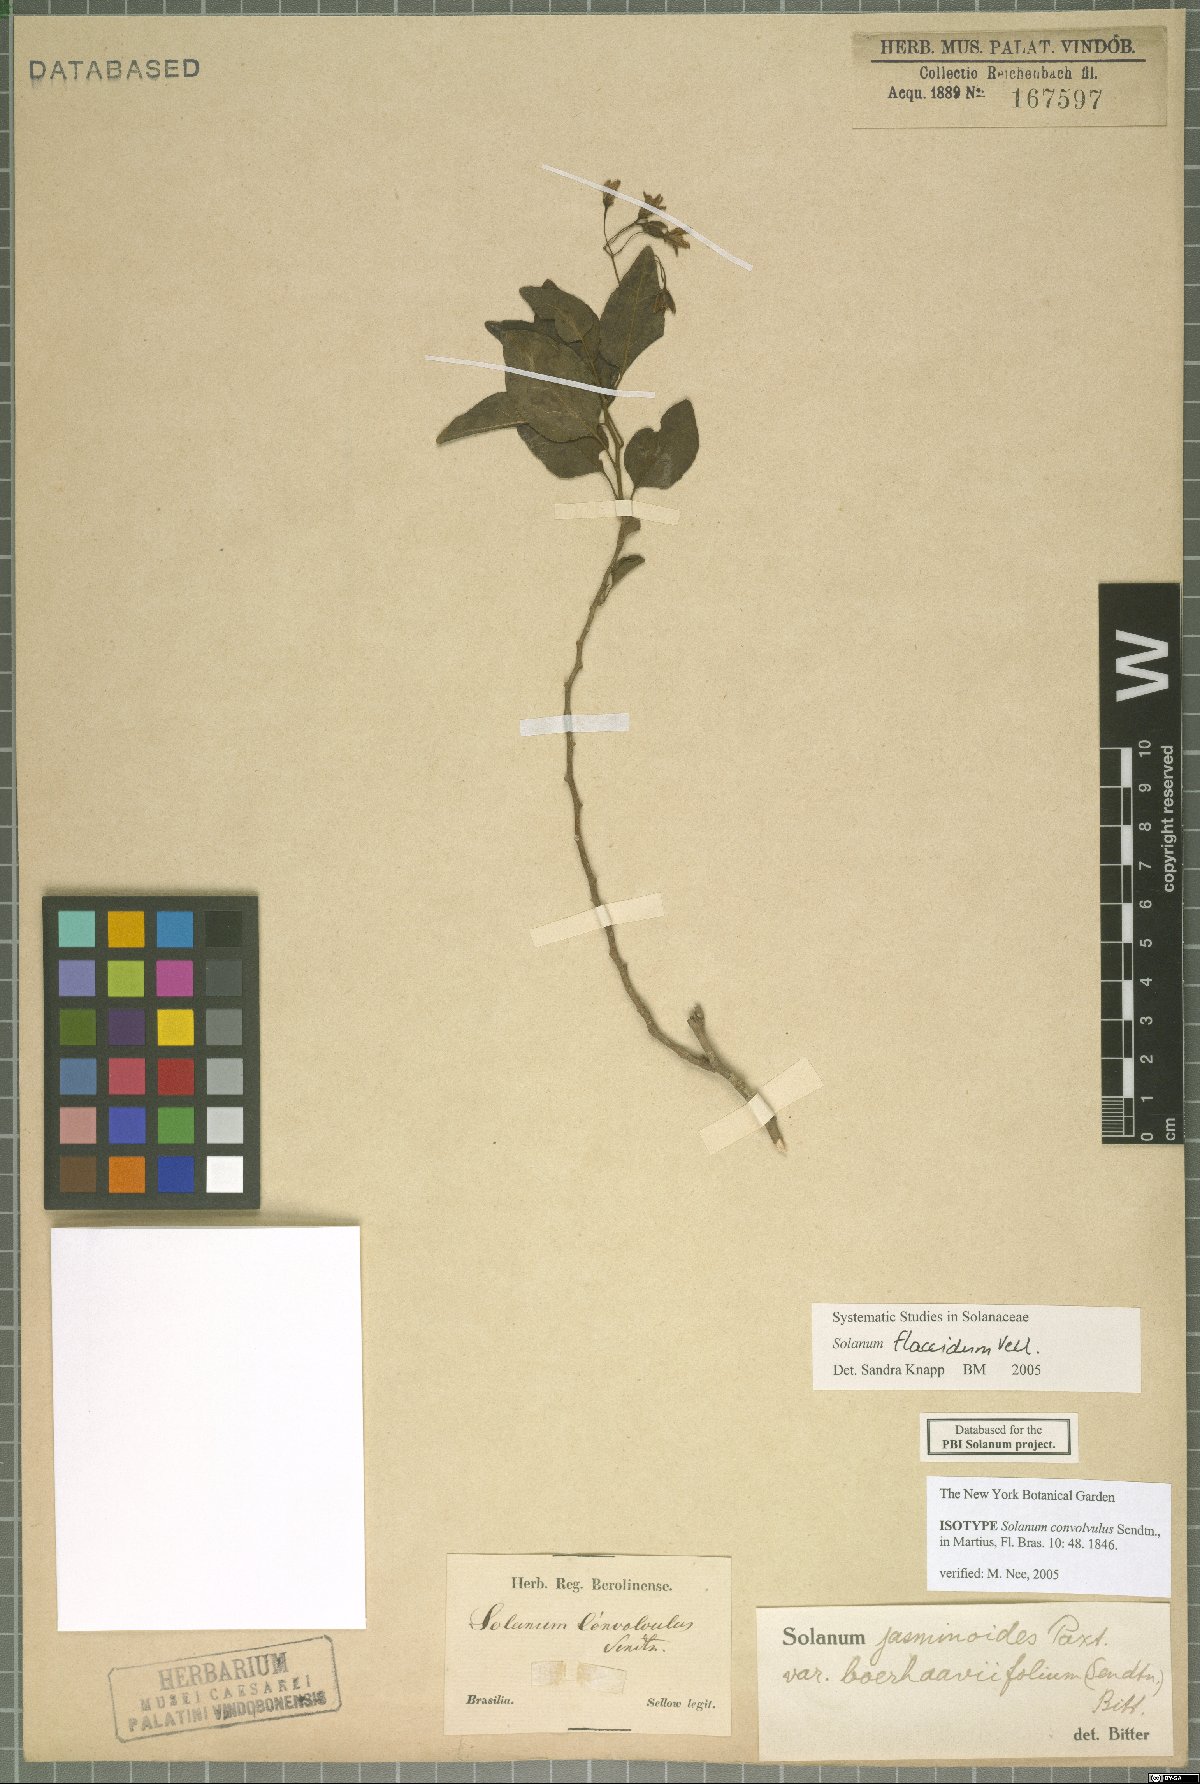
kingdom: Plantae
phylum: Tracheophyta
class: Magnoliopsida
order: Solanales
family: Solanaceae
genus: Solanum
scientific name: Solanum flaccidum
